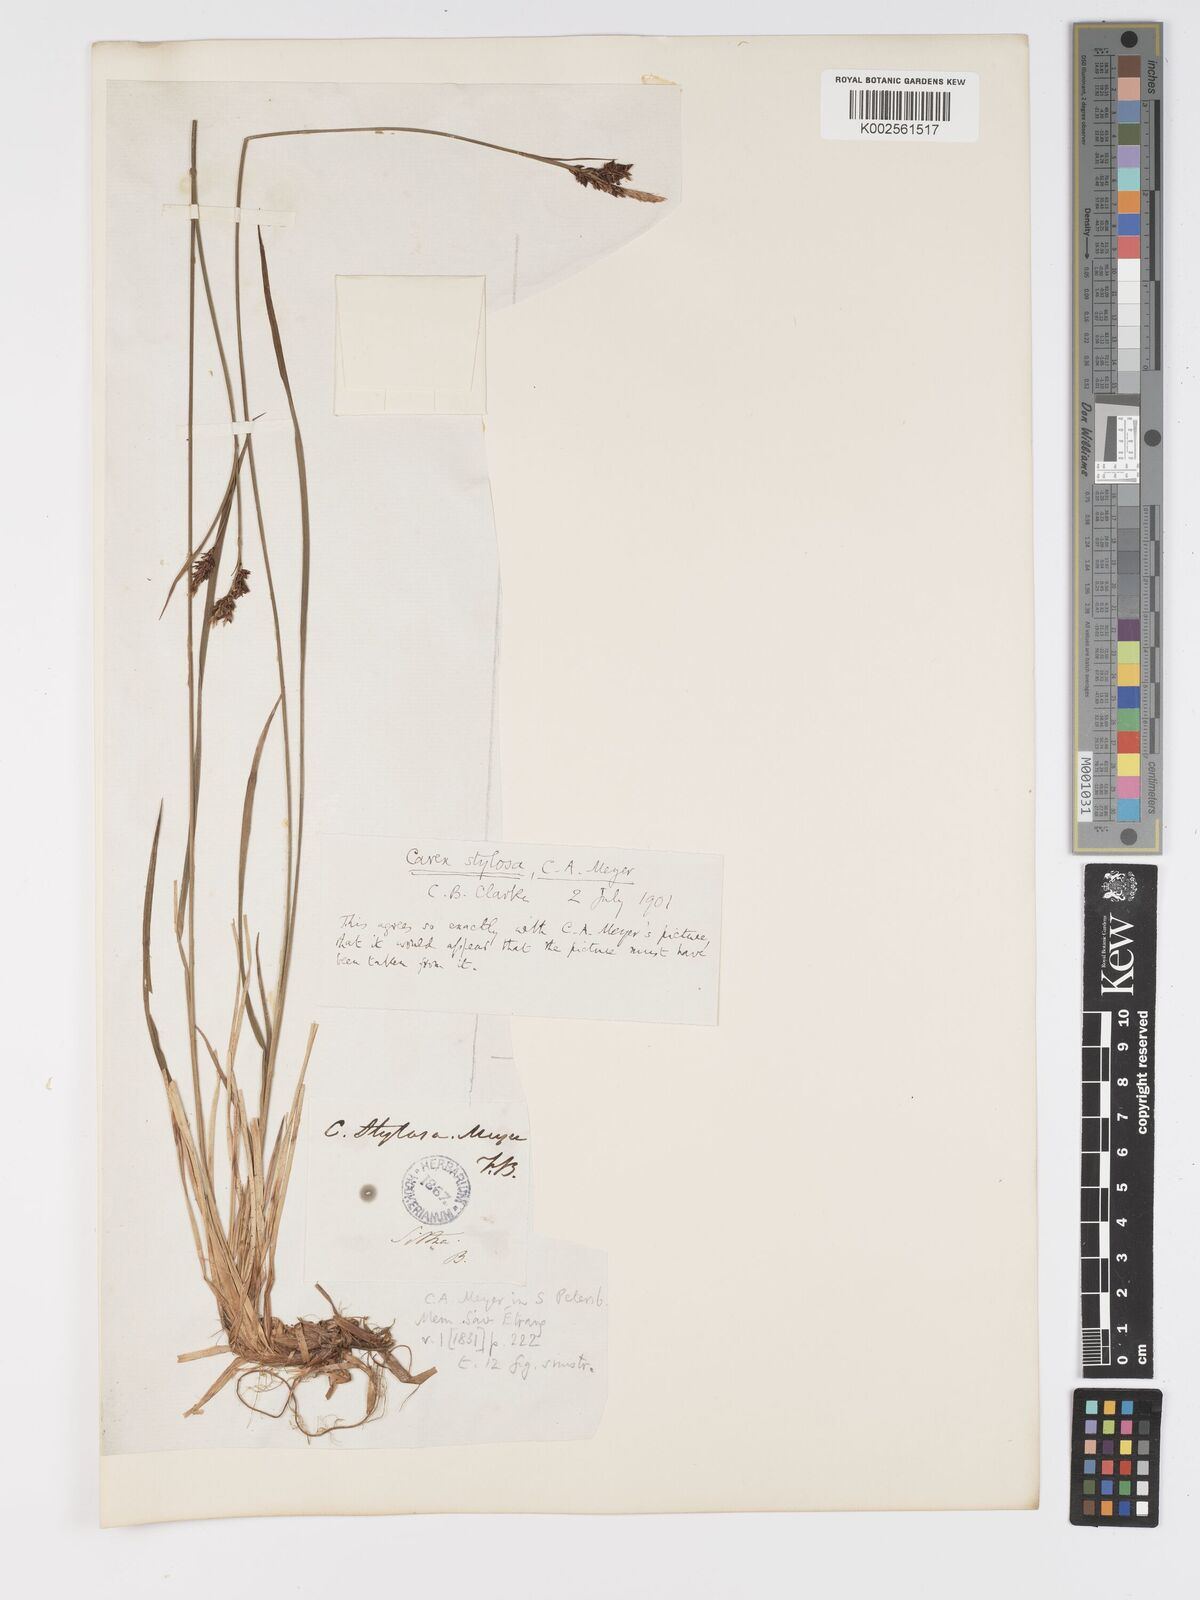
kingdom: Plantae
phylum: Tracheophyta
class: Liliopsida
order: Poales
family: Cyperaceae
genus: Carex
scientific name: Carex stylosa
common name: Long-styled sedge
